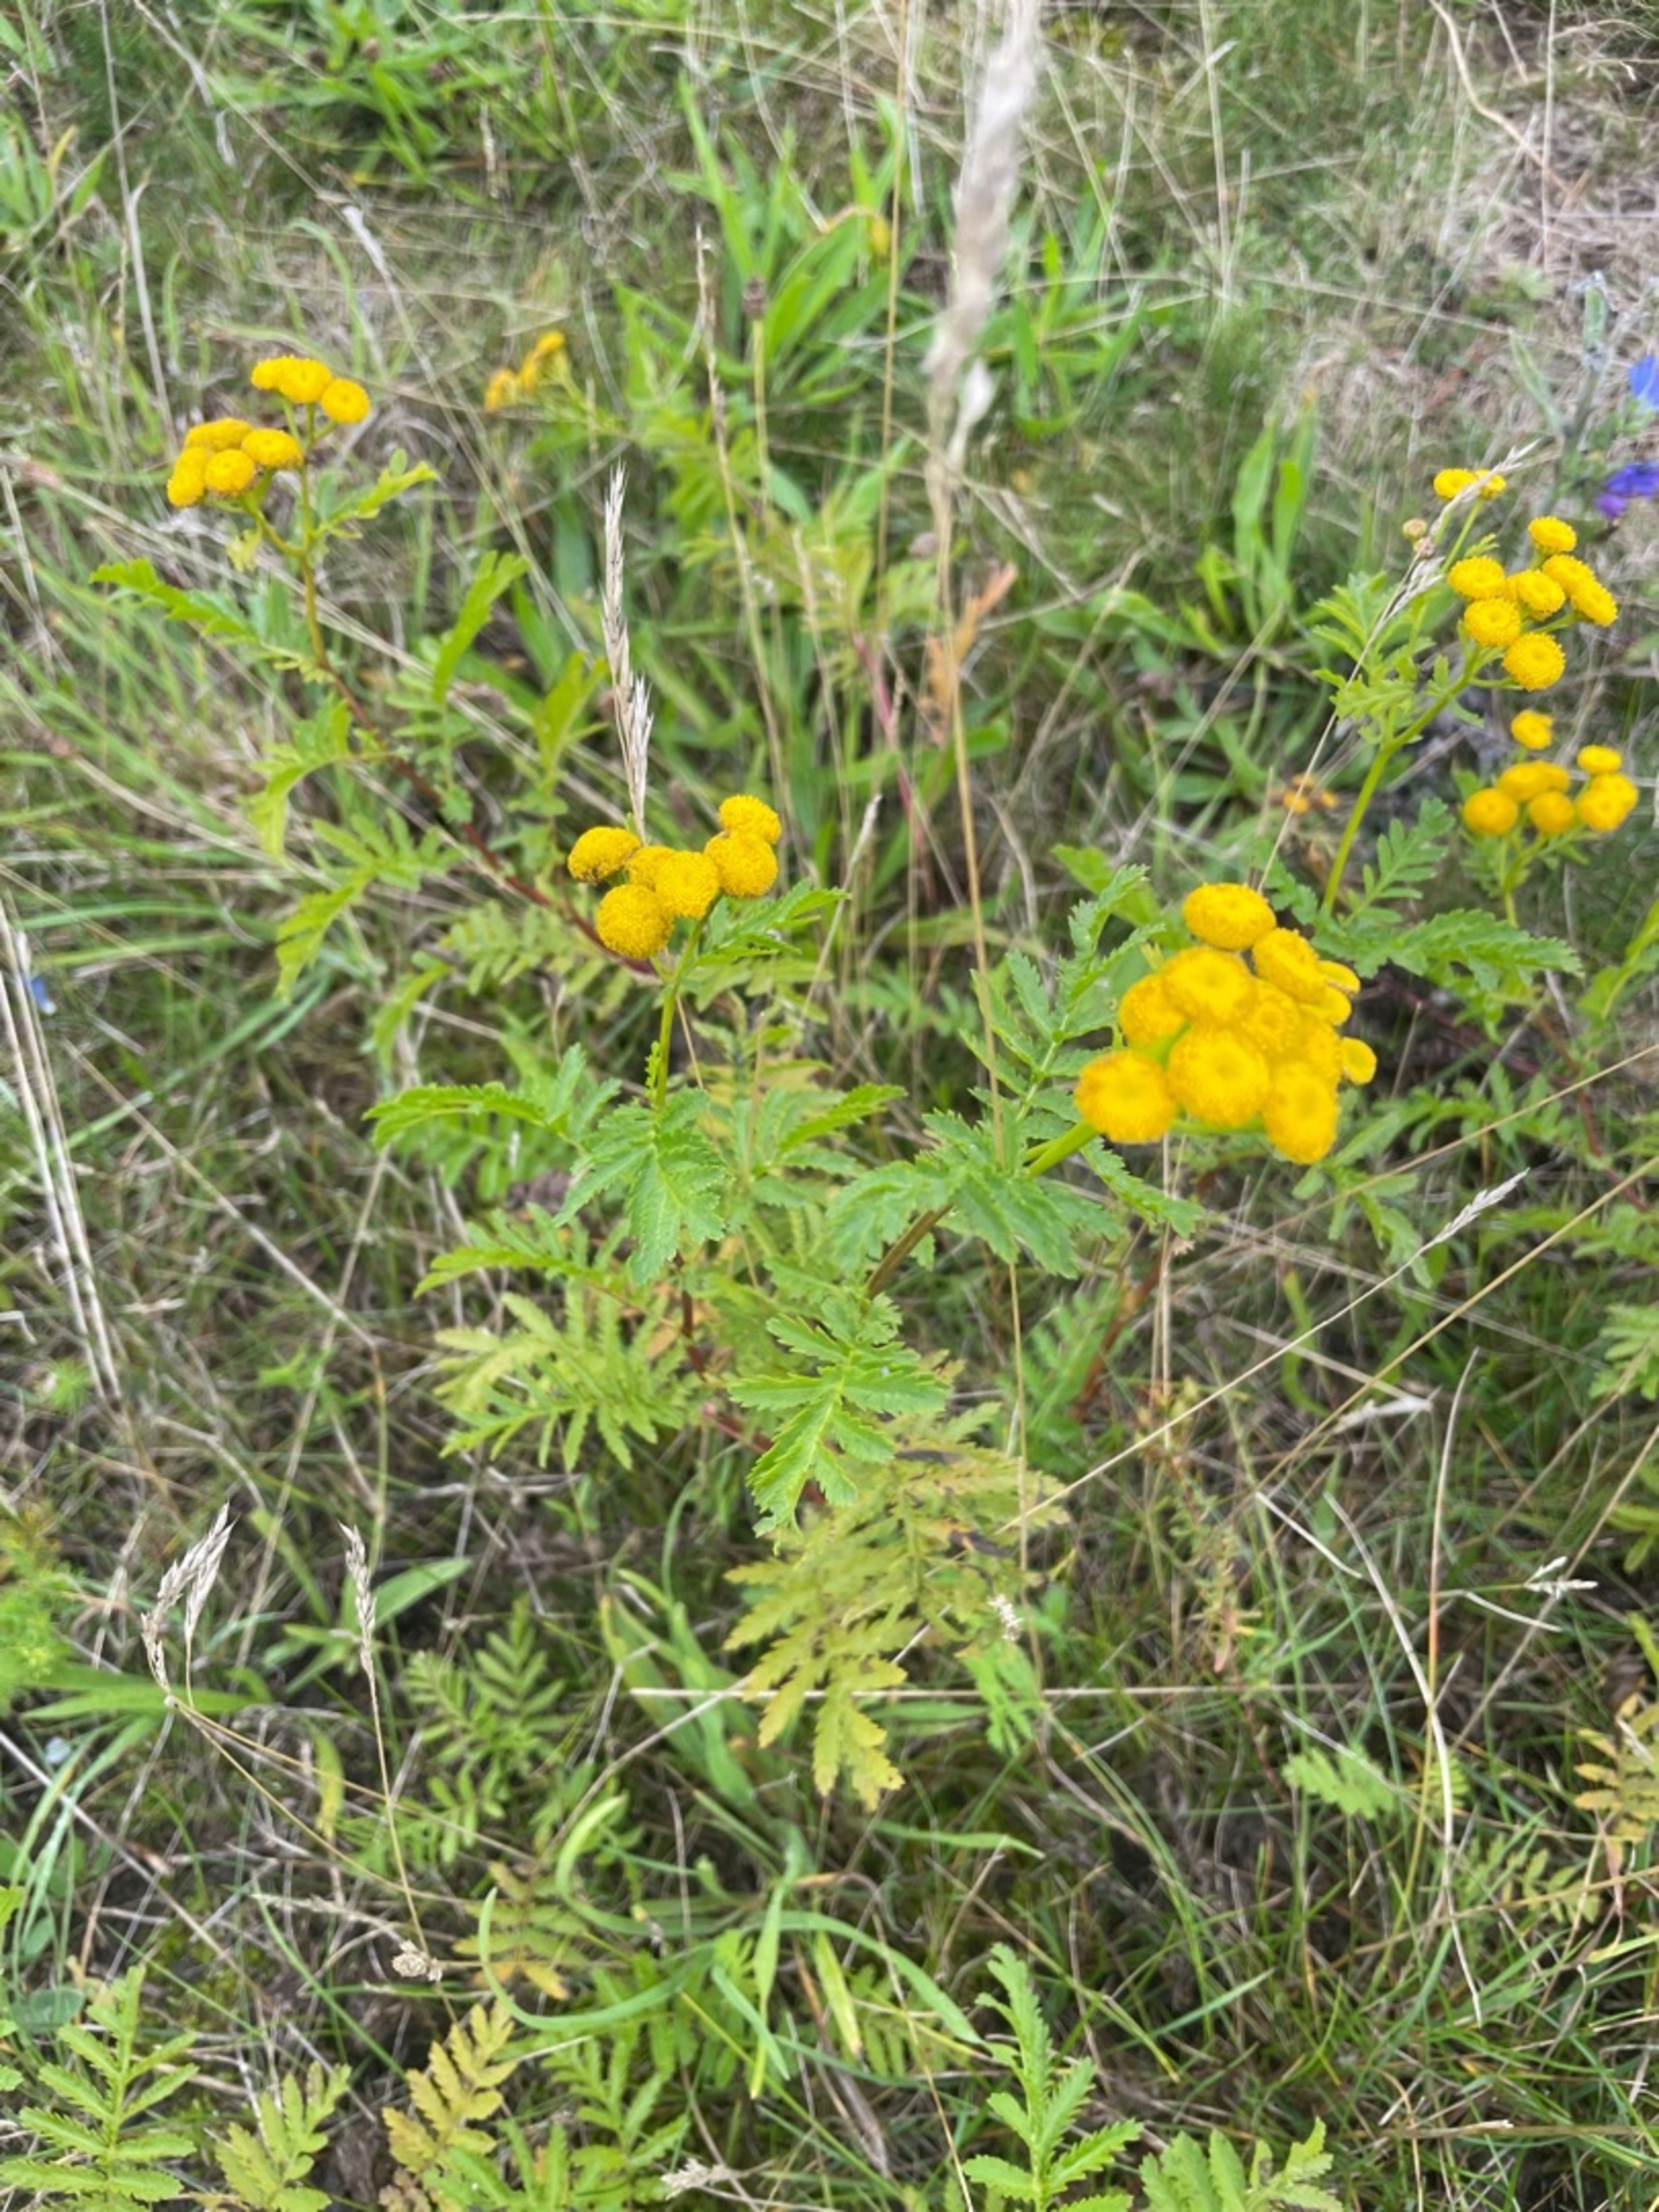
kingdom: Plantae
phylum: Tracheophyta
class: Magnoliopsida
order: Asterales
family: Asteraceae
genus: Tanacetum
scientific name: Tanacetum vulgare
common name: Rejnfan
